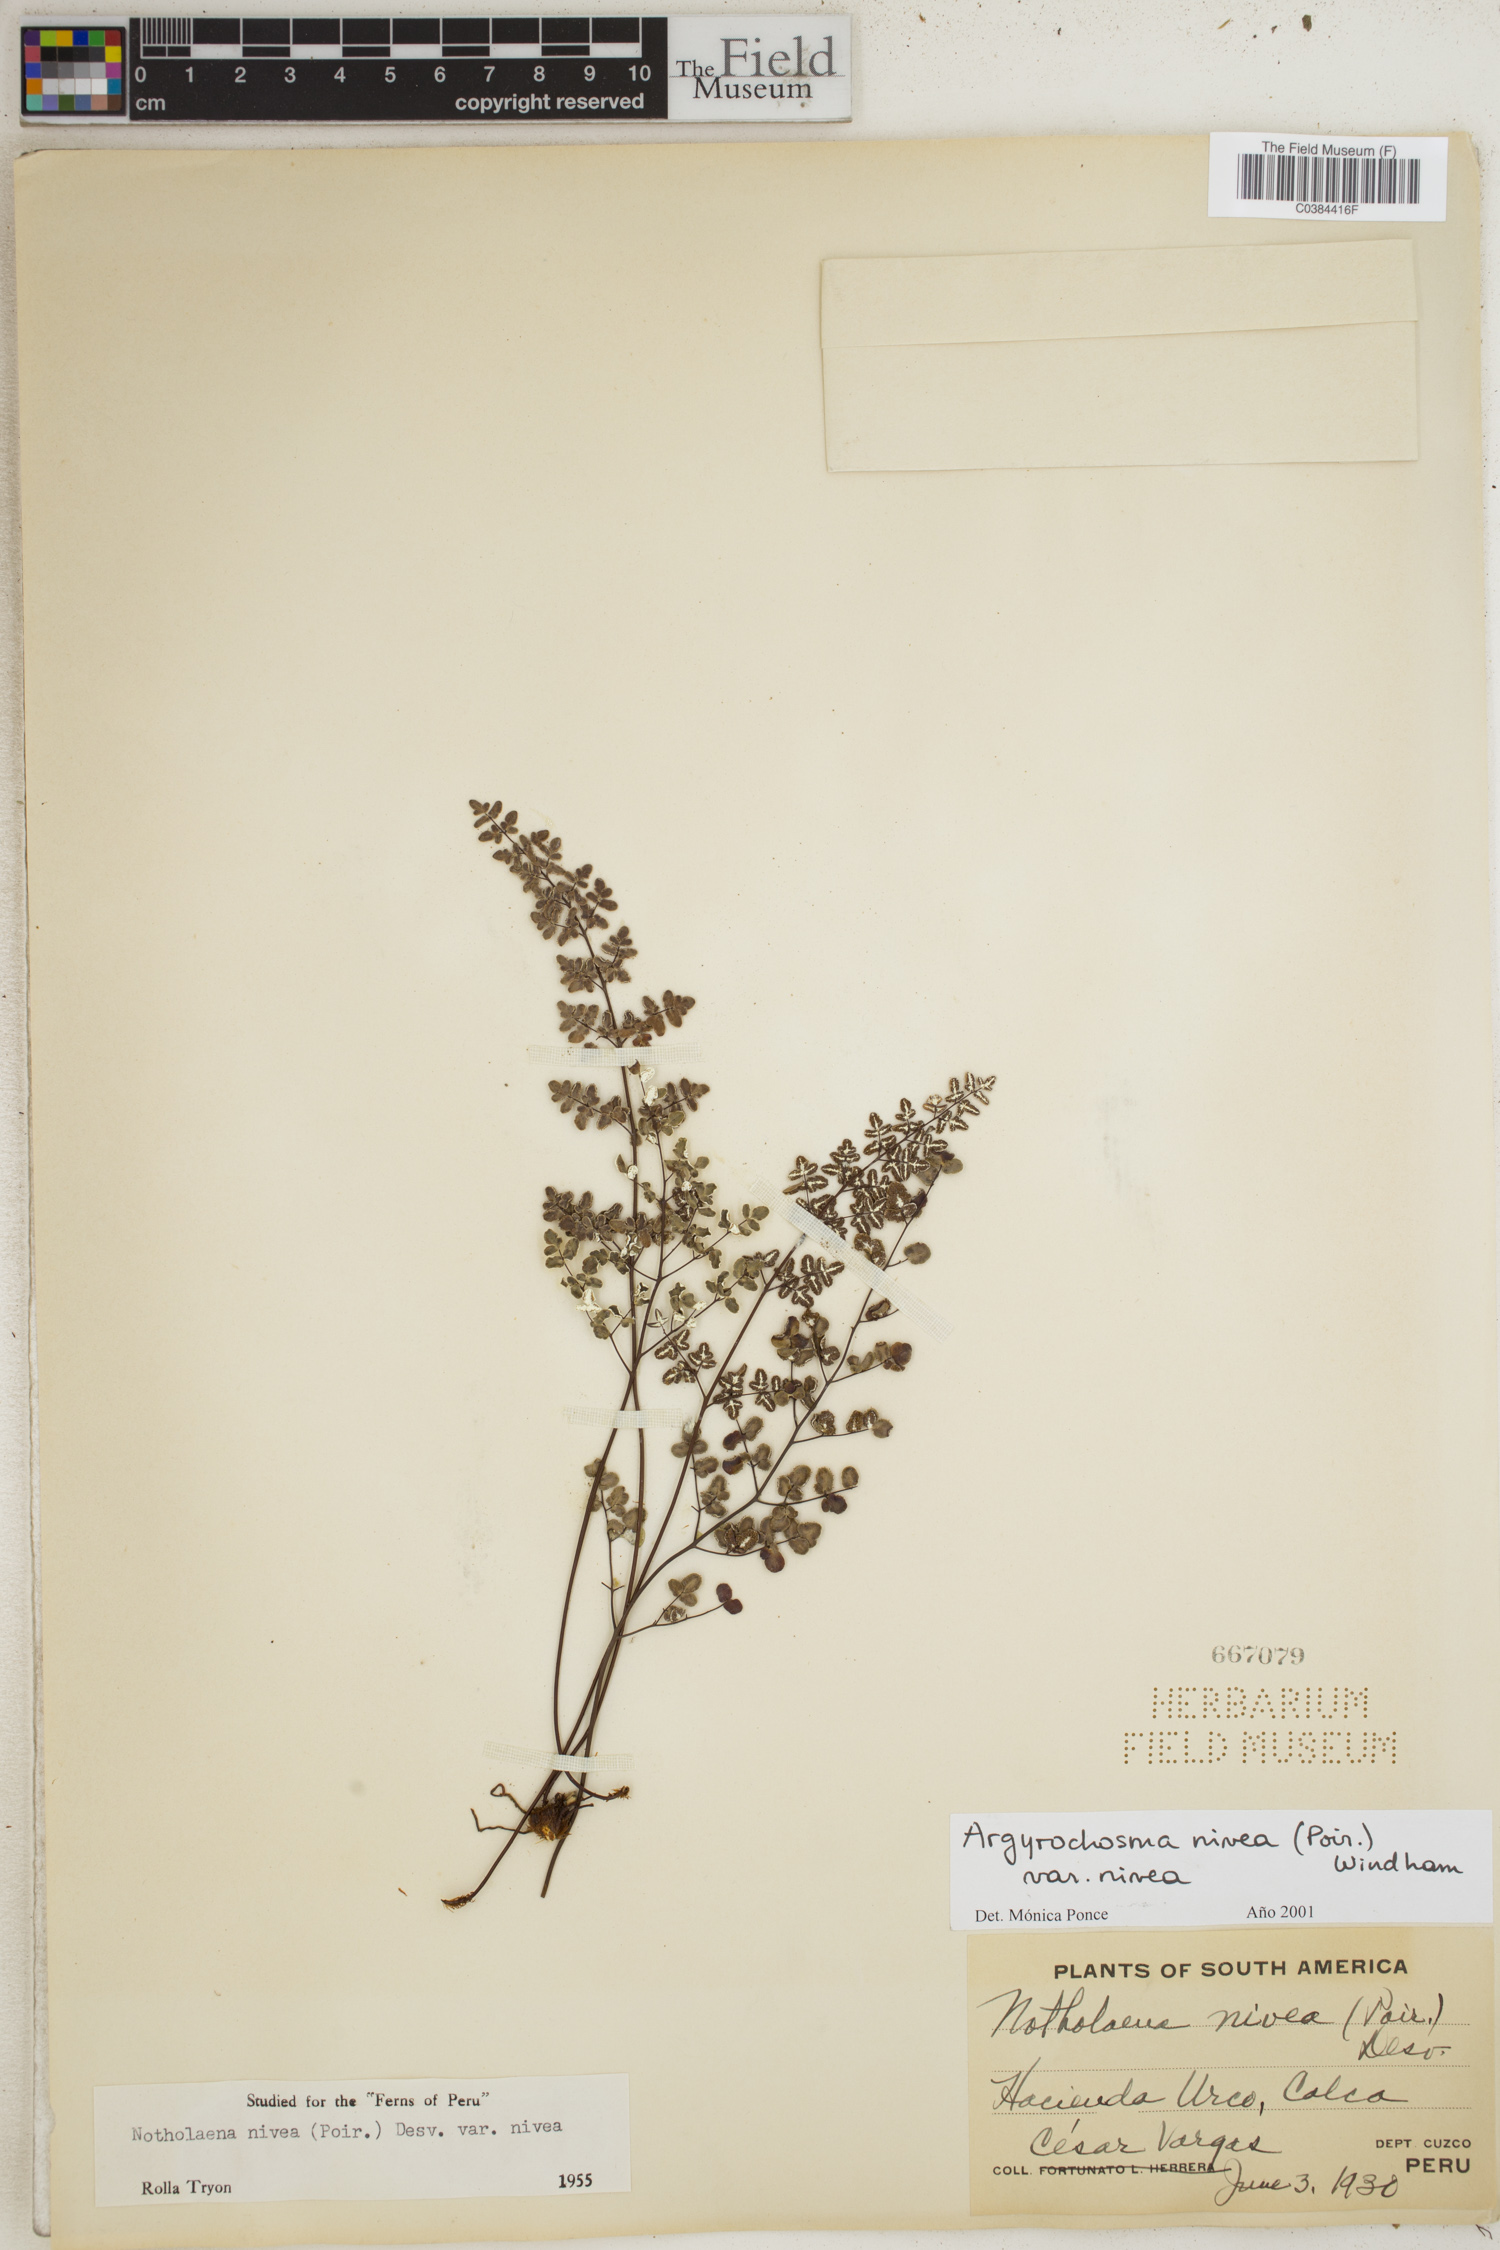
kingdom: Plantae
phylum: Tracheophyta
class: Polypodiopsida
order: Polypodiales
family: Pteridaceae
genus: Argyrochosma
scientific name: Argyrochosma nivea
